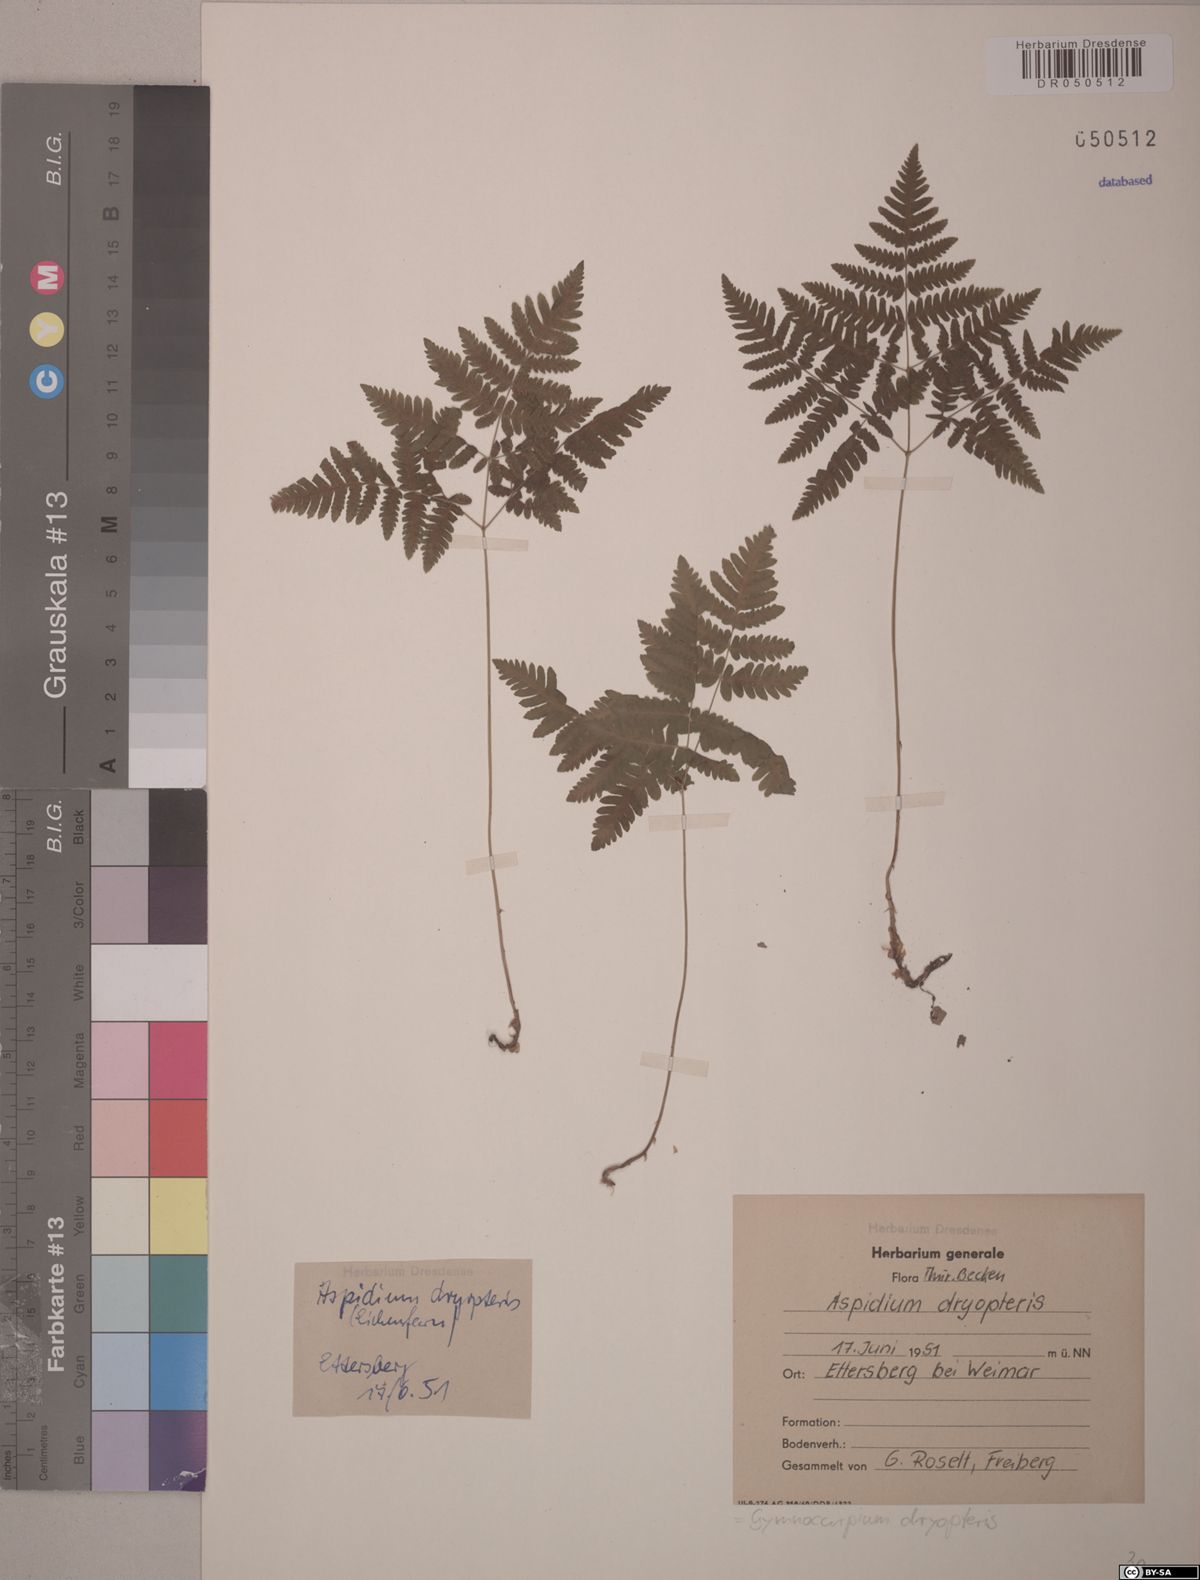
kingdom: Plantae
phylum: Tracheophyta
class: Polypodiopsida
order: Polypodiales
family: Cystopteridaceae
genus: Gymnocarpium
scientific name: Gymnocarpium dryopteris
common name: Oak fern
